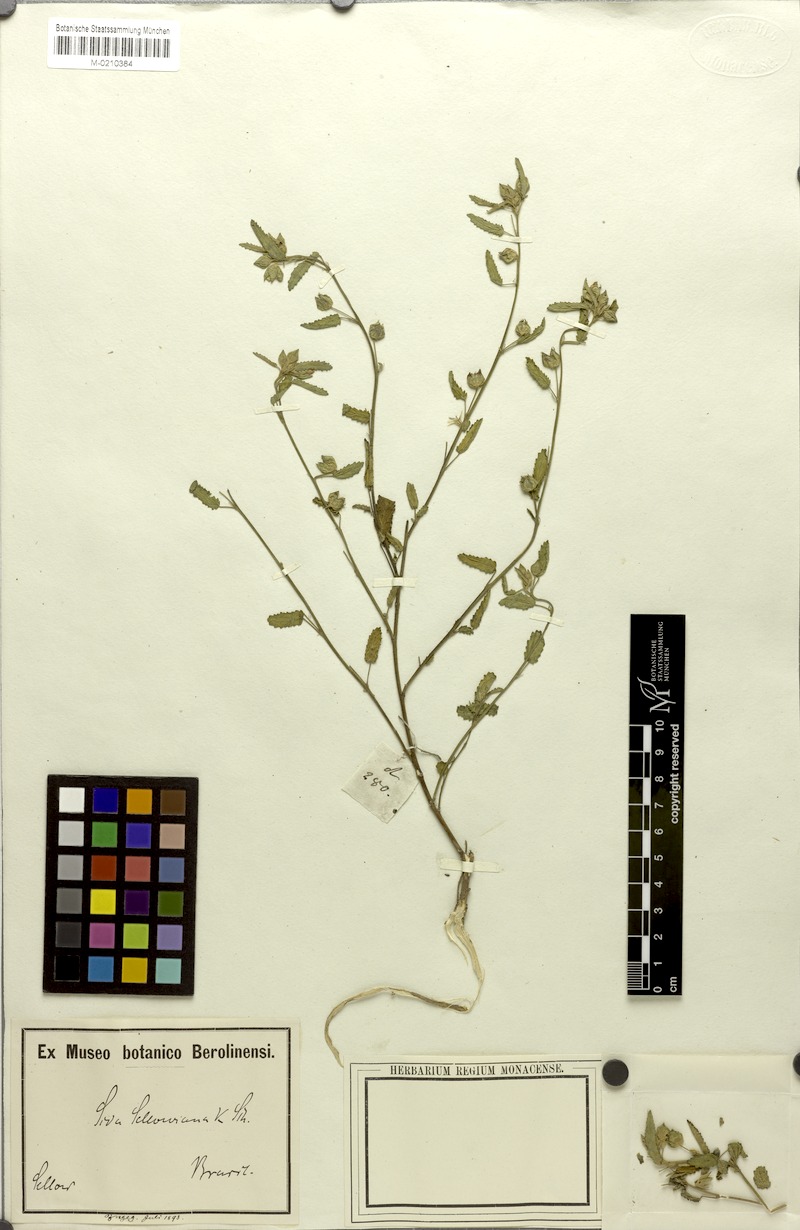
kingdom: Plantae
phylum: Tracheophyta
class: Magnoliopsida
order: Malvales
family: Malvaceae
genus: Callianthe
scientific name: Callianthe sellowiana
